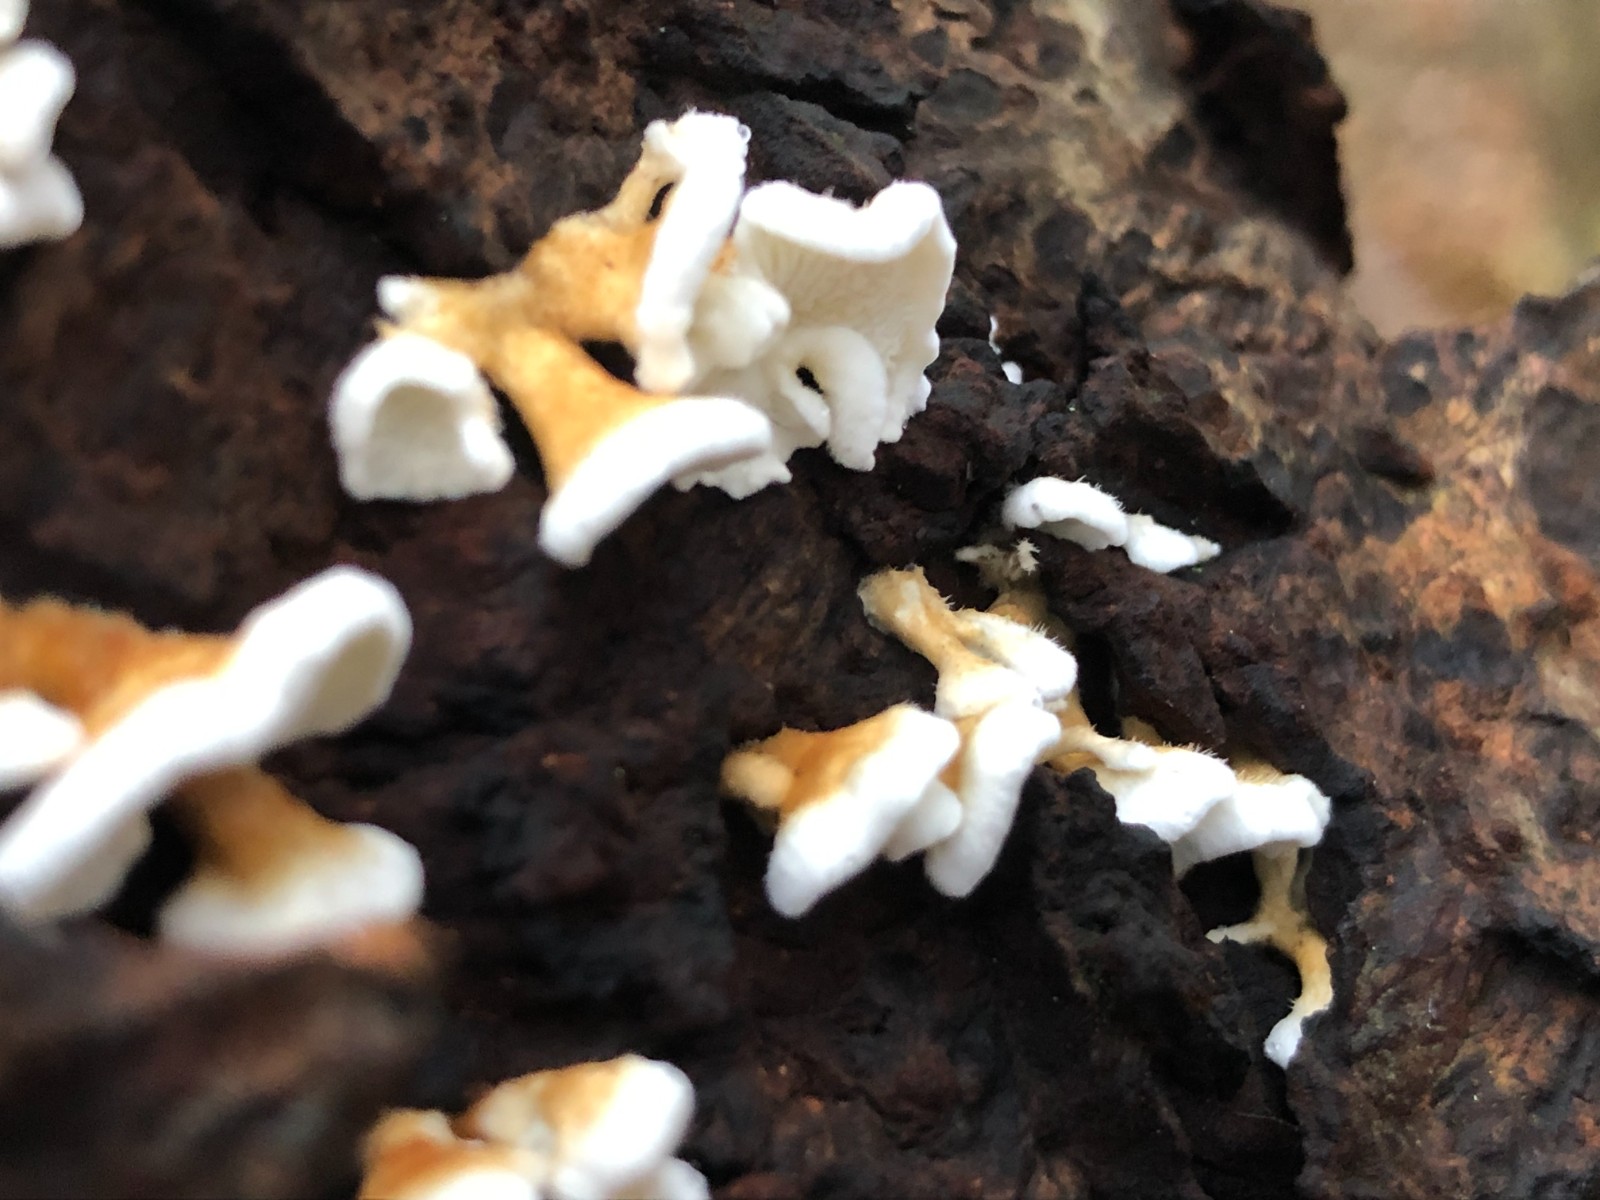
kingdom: Fungi
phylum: Basidiomycota
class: Agaricomycetes
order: Amylocorticiales
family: Amylocorticiaceae
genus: Plicaturopsis
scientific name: Plicaturopsis crispa
